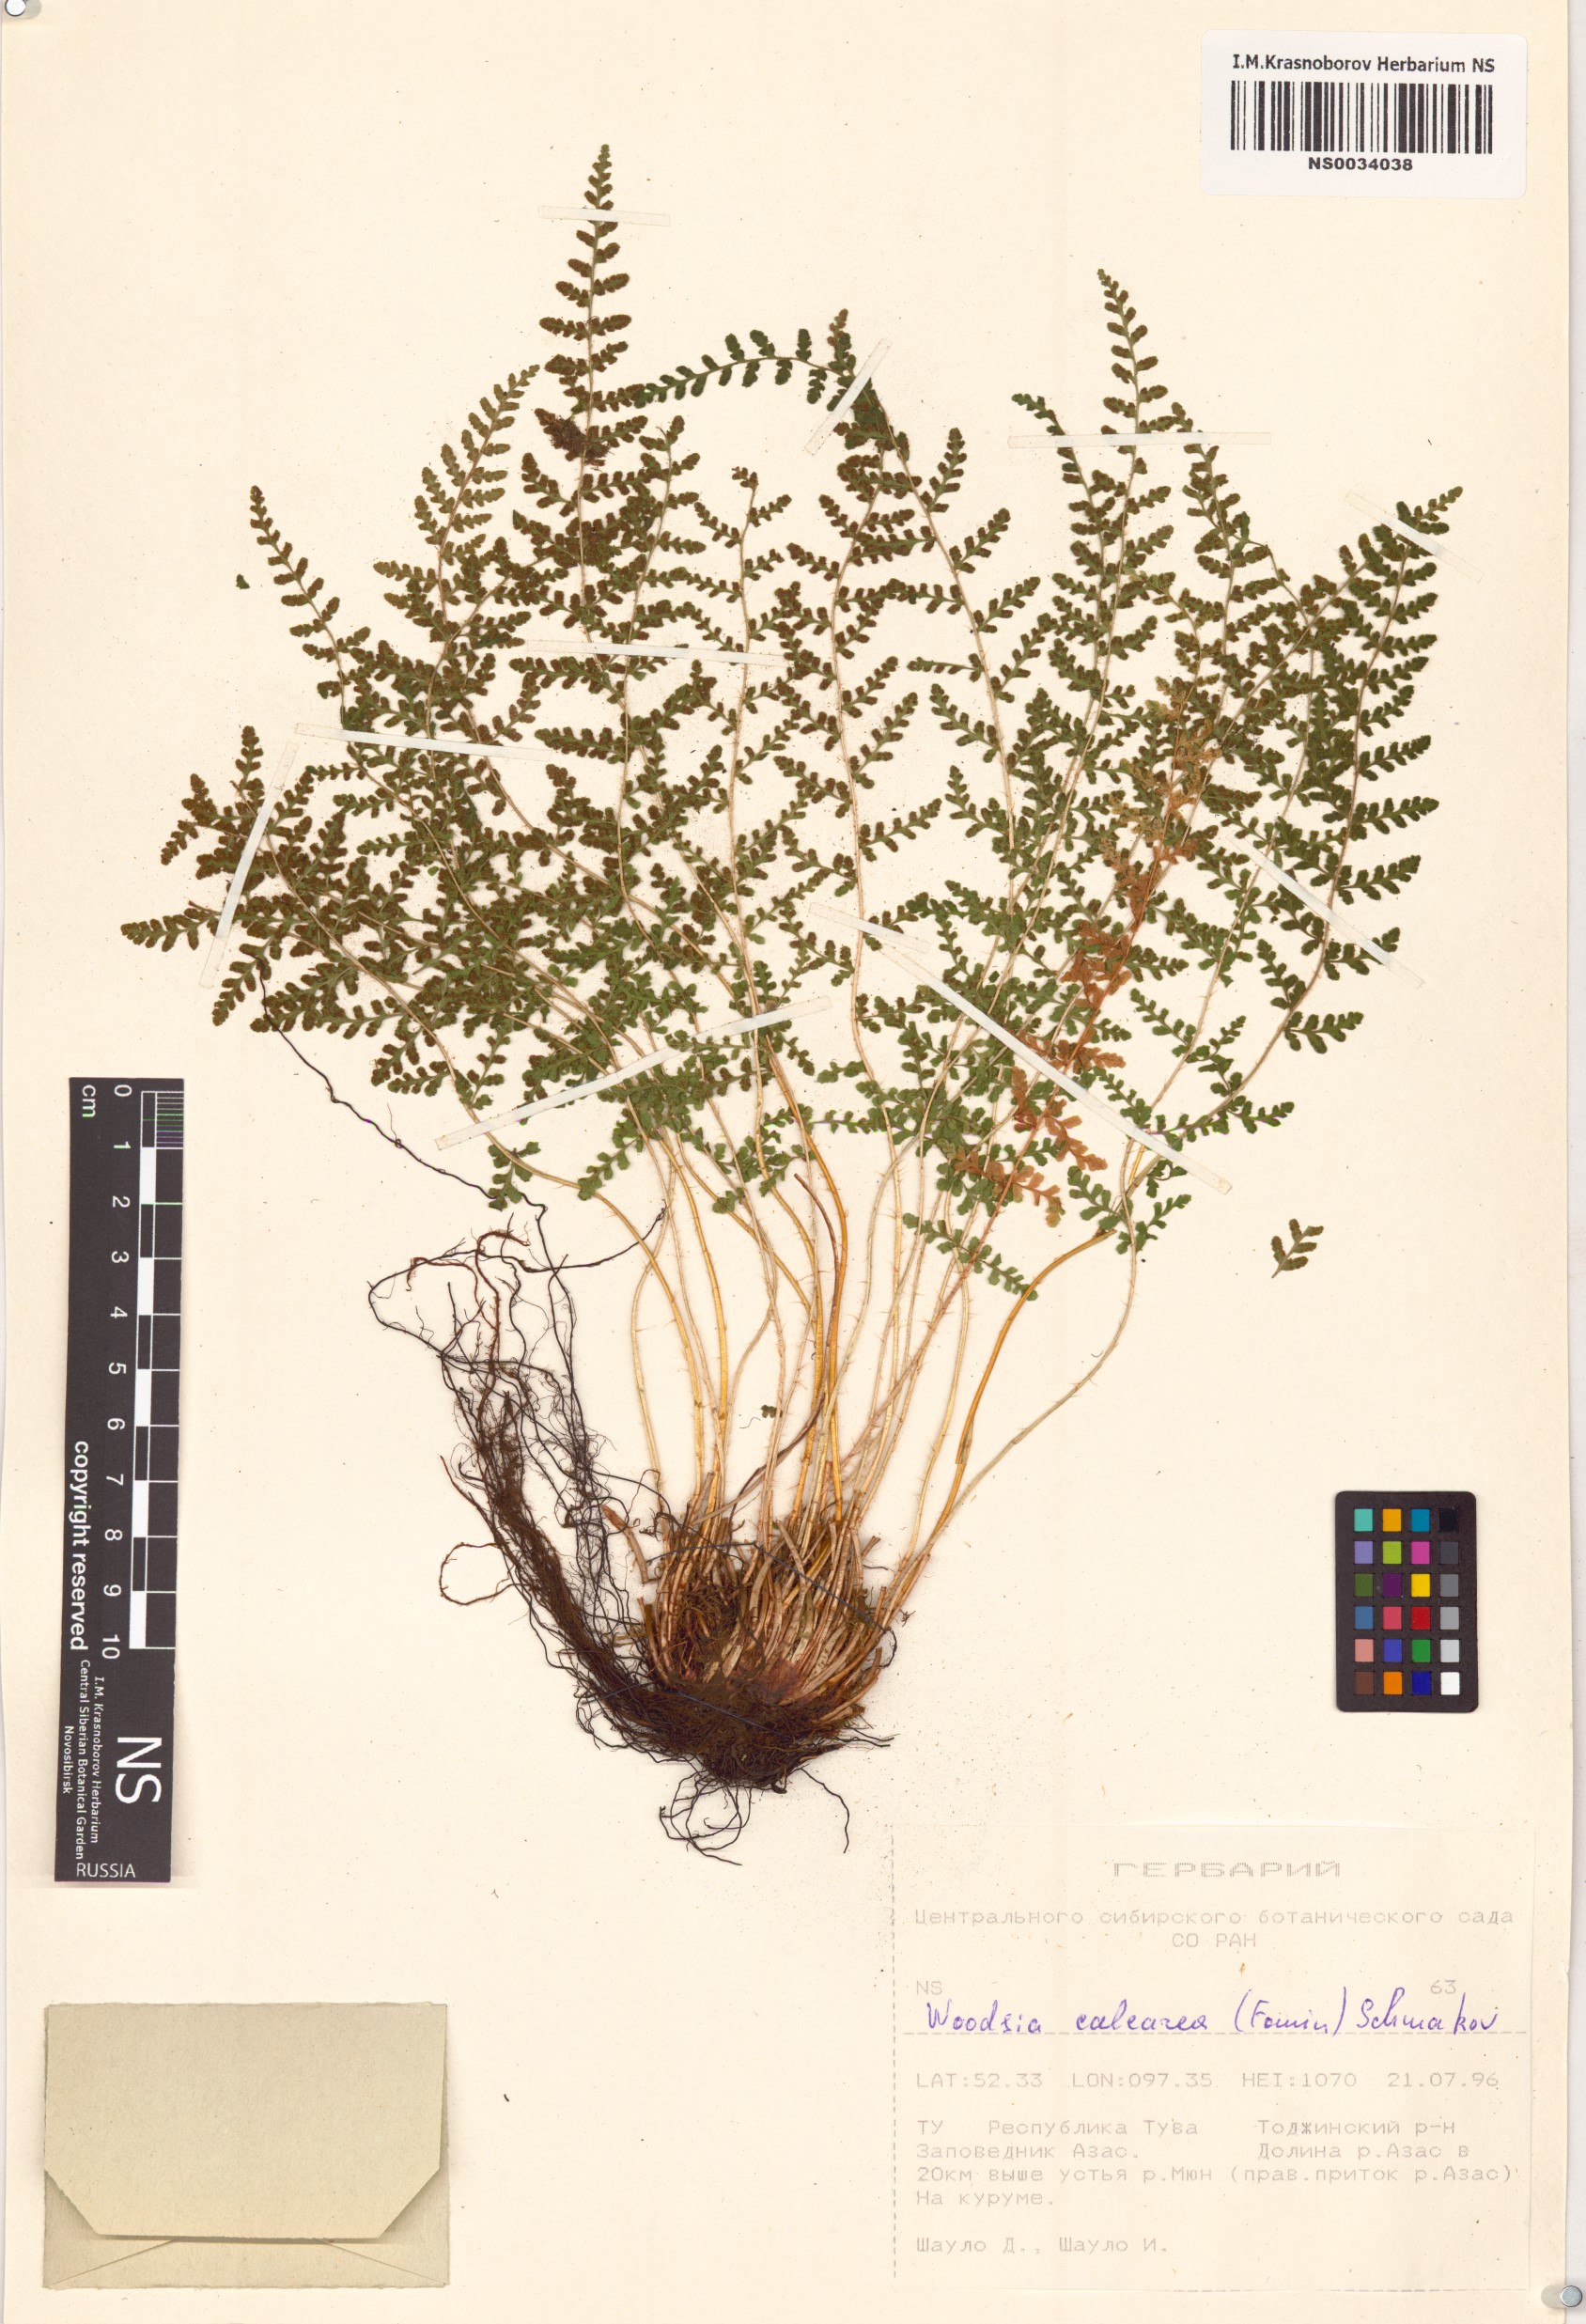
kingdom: Plantae
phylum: Tracheophyta
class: Polypodiopsida
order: Polypodiales
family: Woodsiaceae
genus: Woodsia
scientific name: Woodsia calcarea
